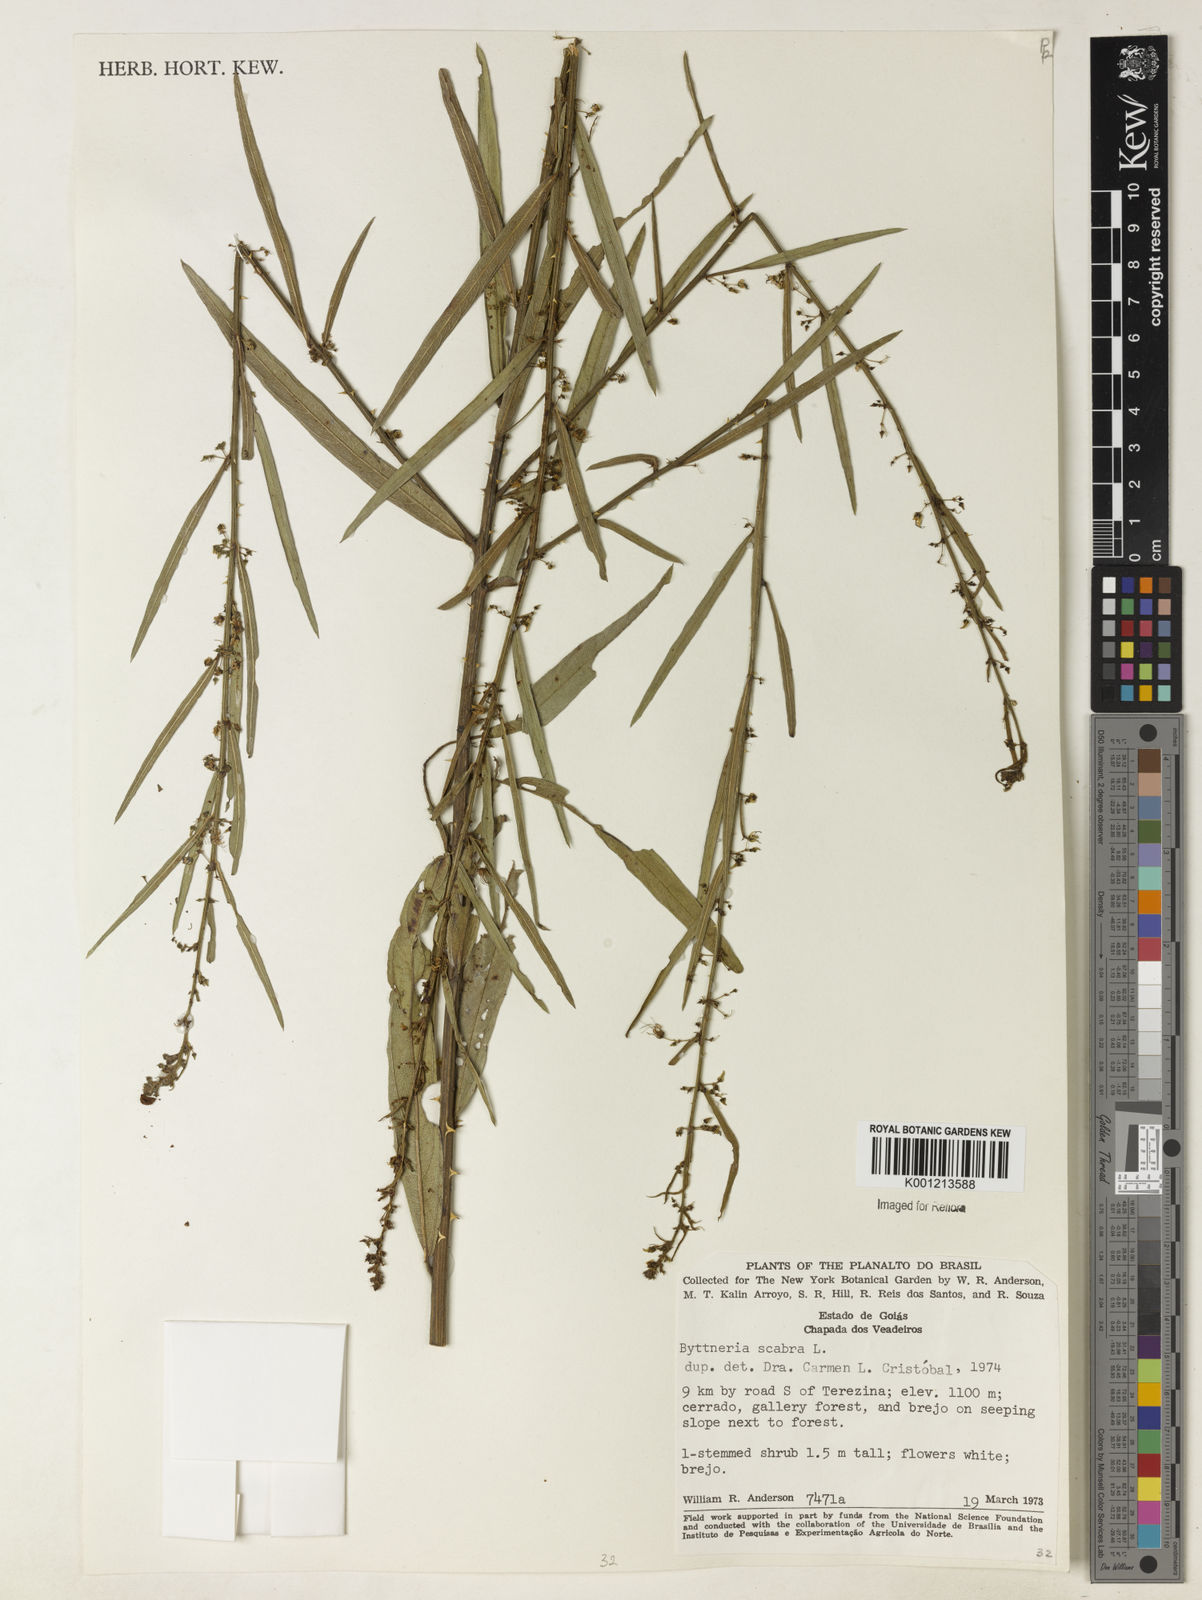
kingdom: Plantae
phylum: Tracheophyta
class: Magnoliopsida
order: Malvales
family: Malvaceae
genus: Byttneria
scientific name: Byttneria
